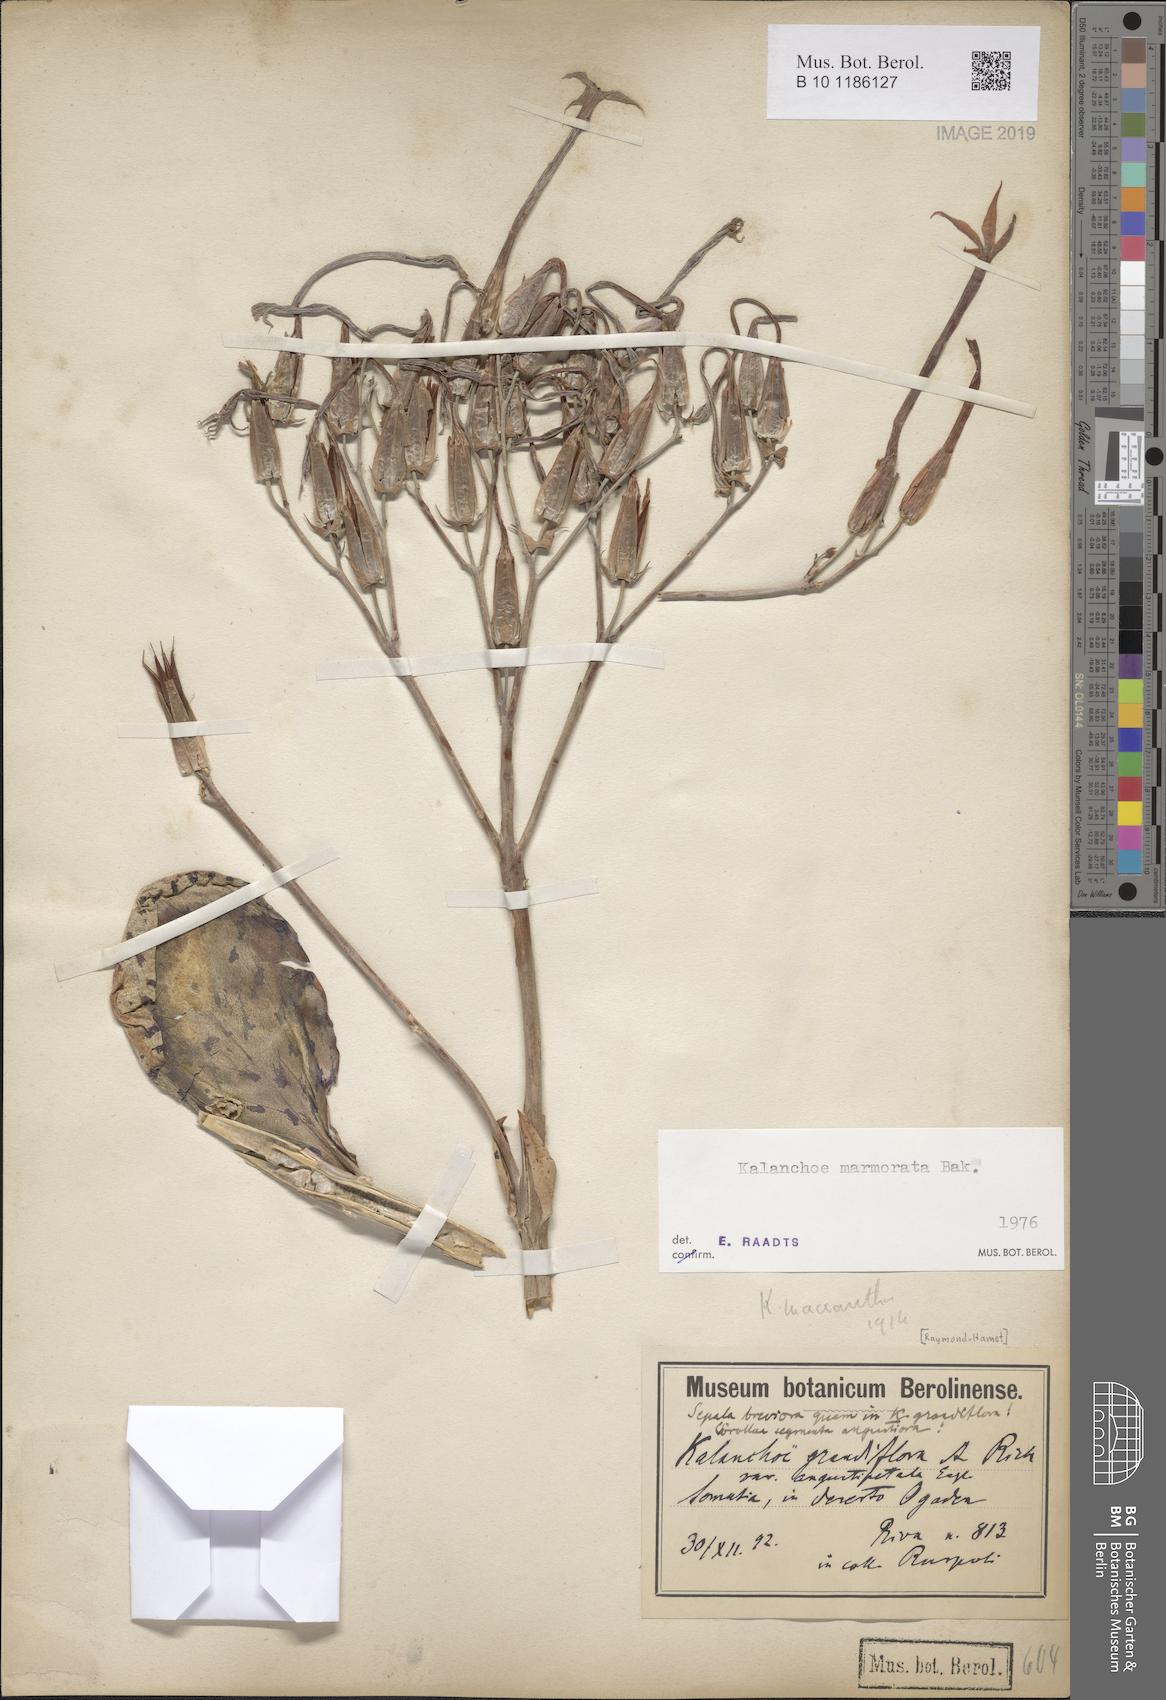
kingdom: Plantae
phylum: Tracheophyta
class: Magnoliopsida
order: Saxifragales
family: Crassulaceae
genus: Kalanchoe
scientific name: Kalanchoe marmorata
